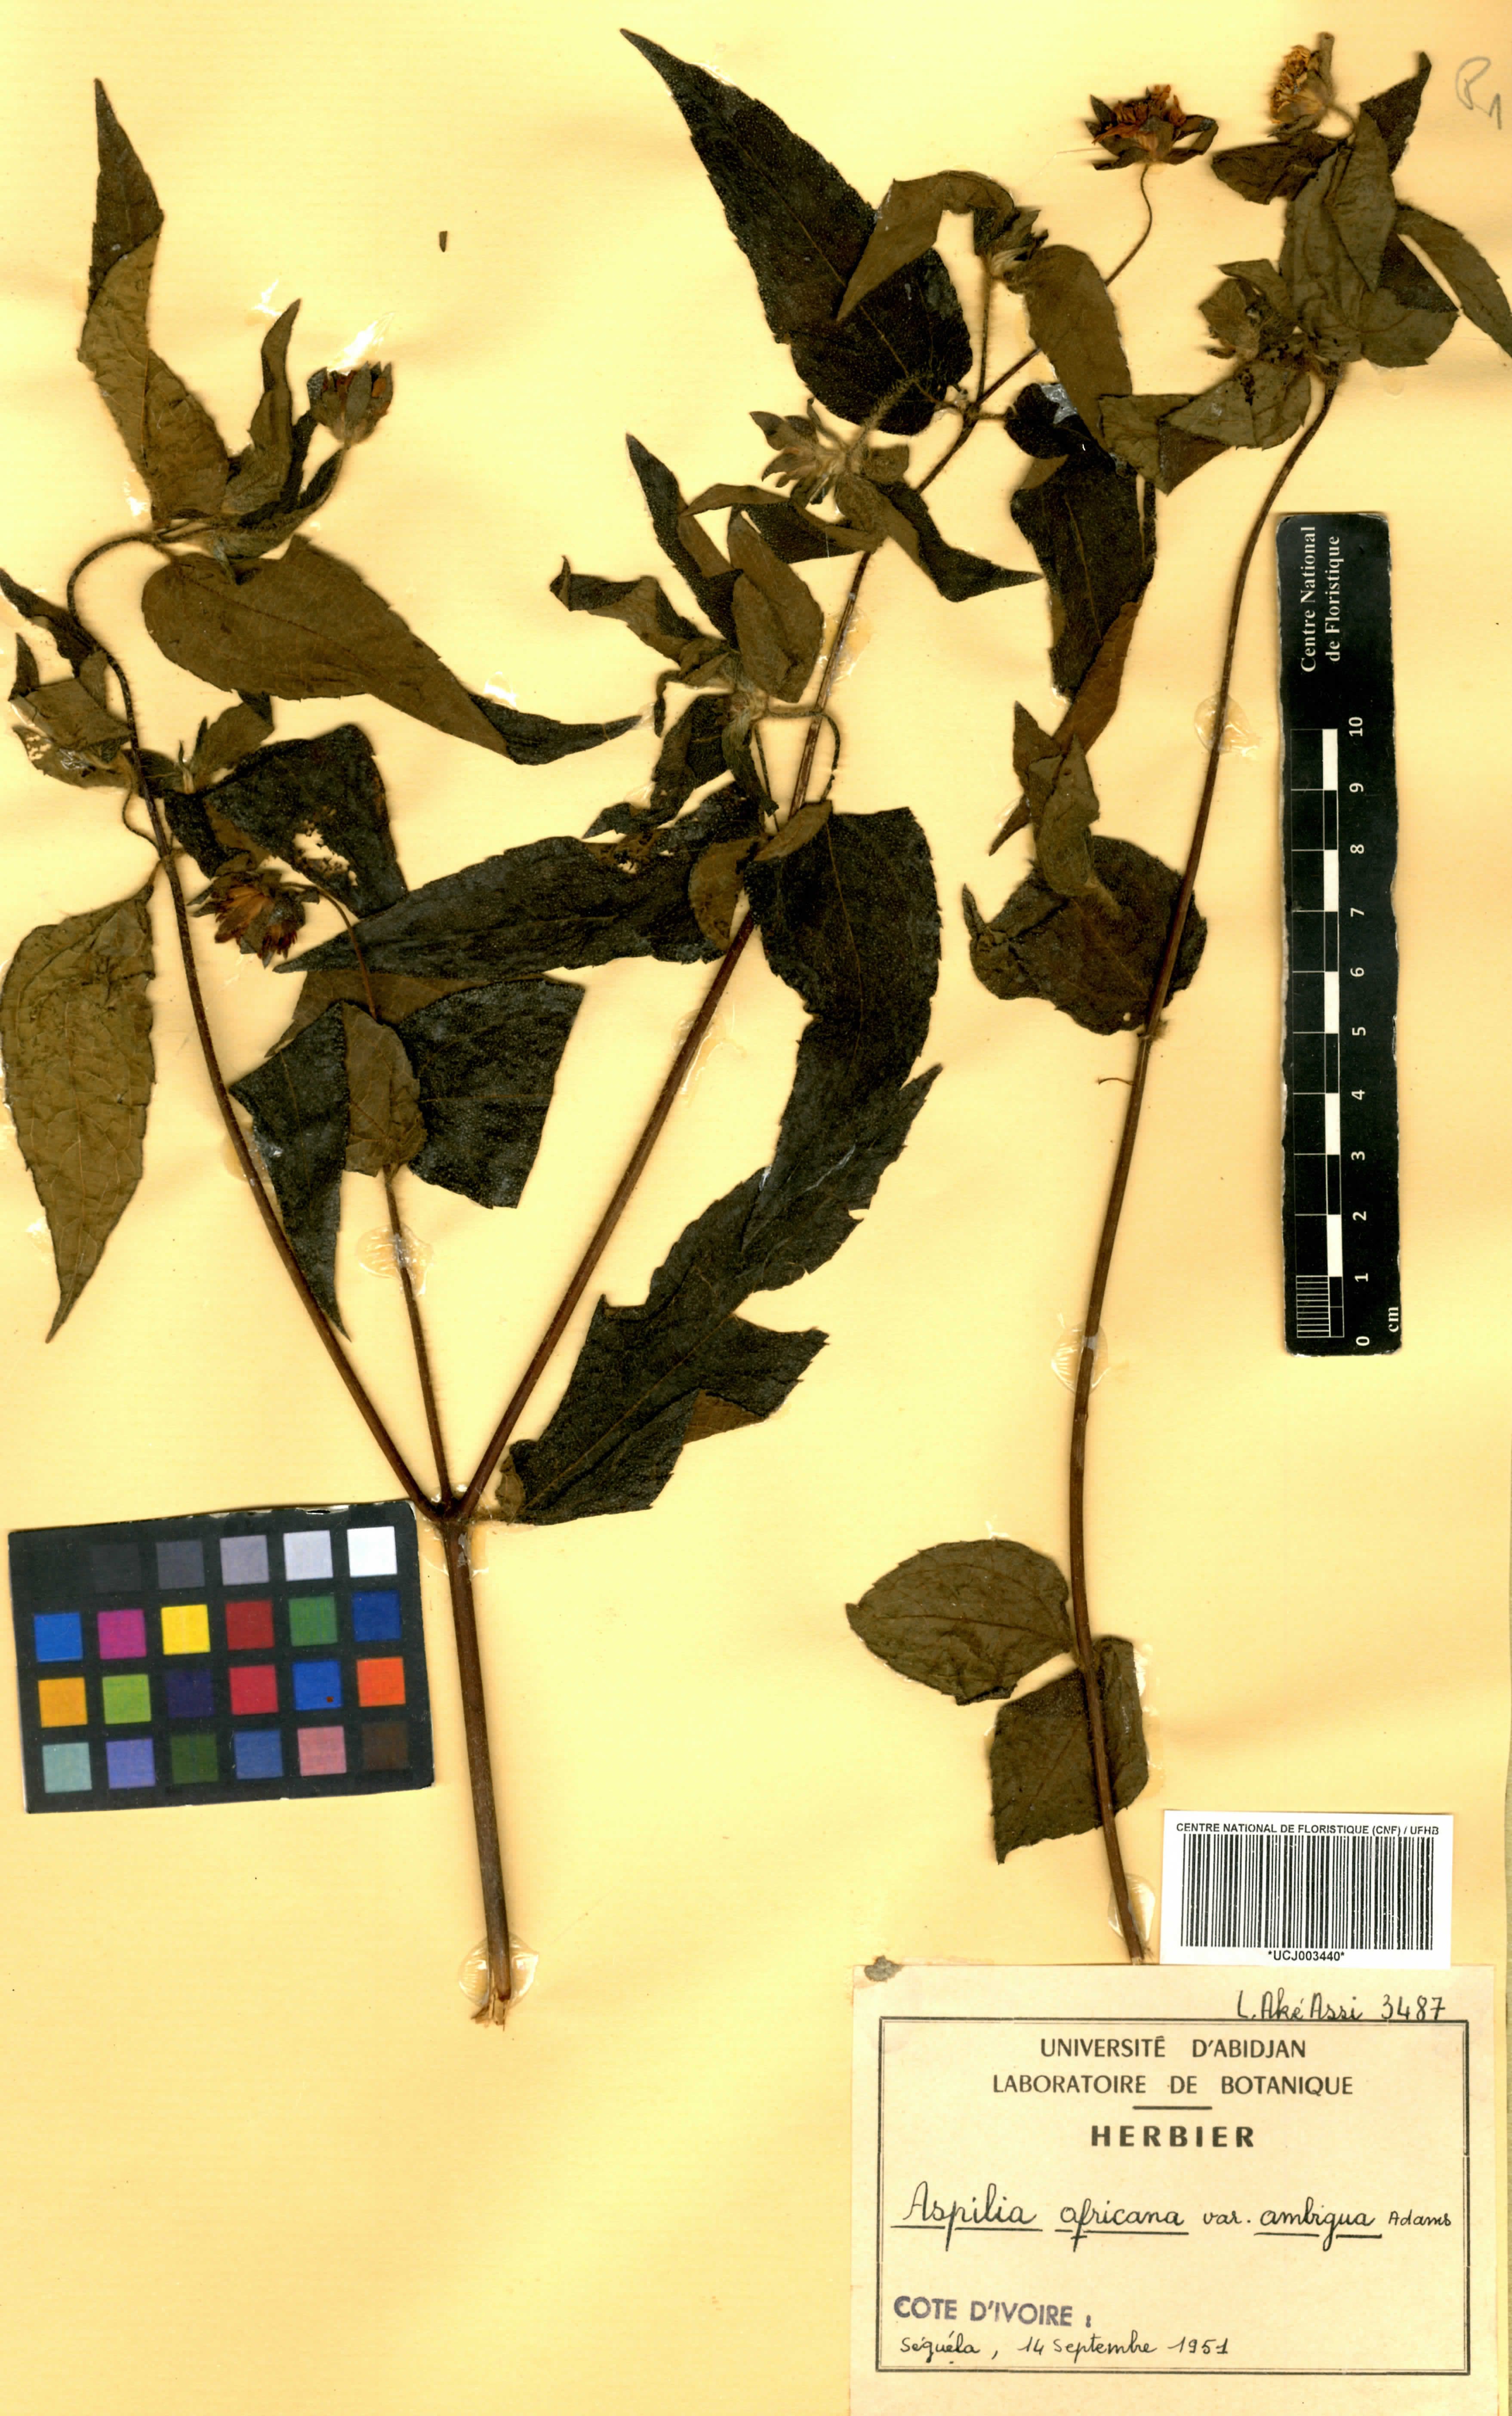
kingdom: Plantae
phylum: Tracheophyta
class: Magnoliopsida
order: Asterales
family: Asteraceae
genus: Aspilia
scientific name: Aspilia africana
